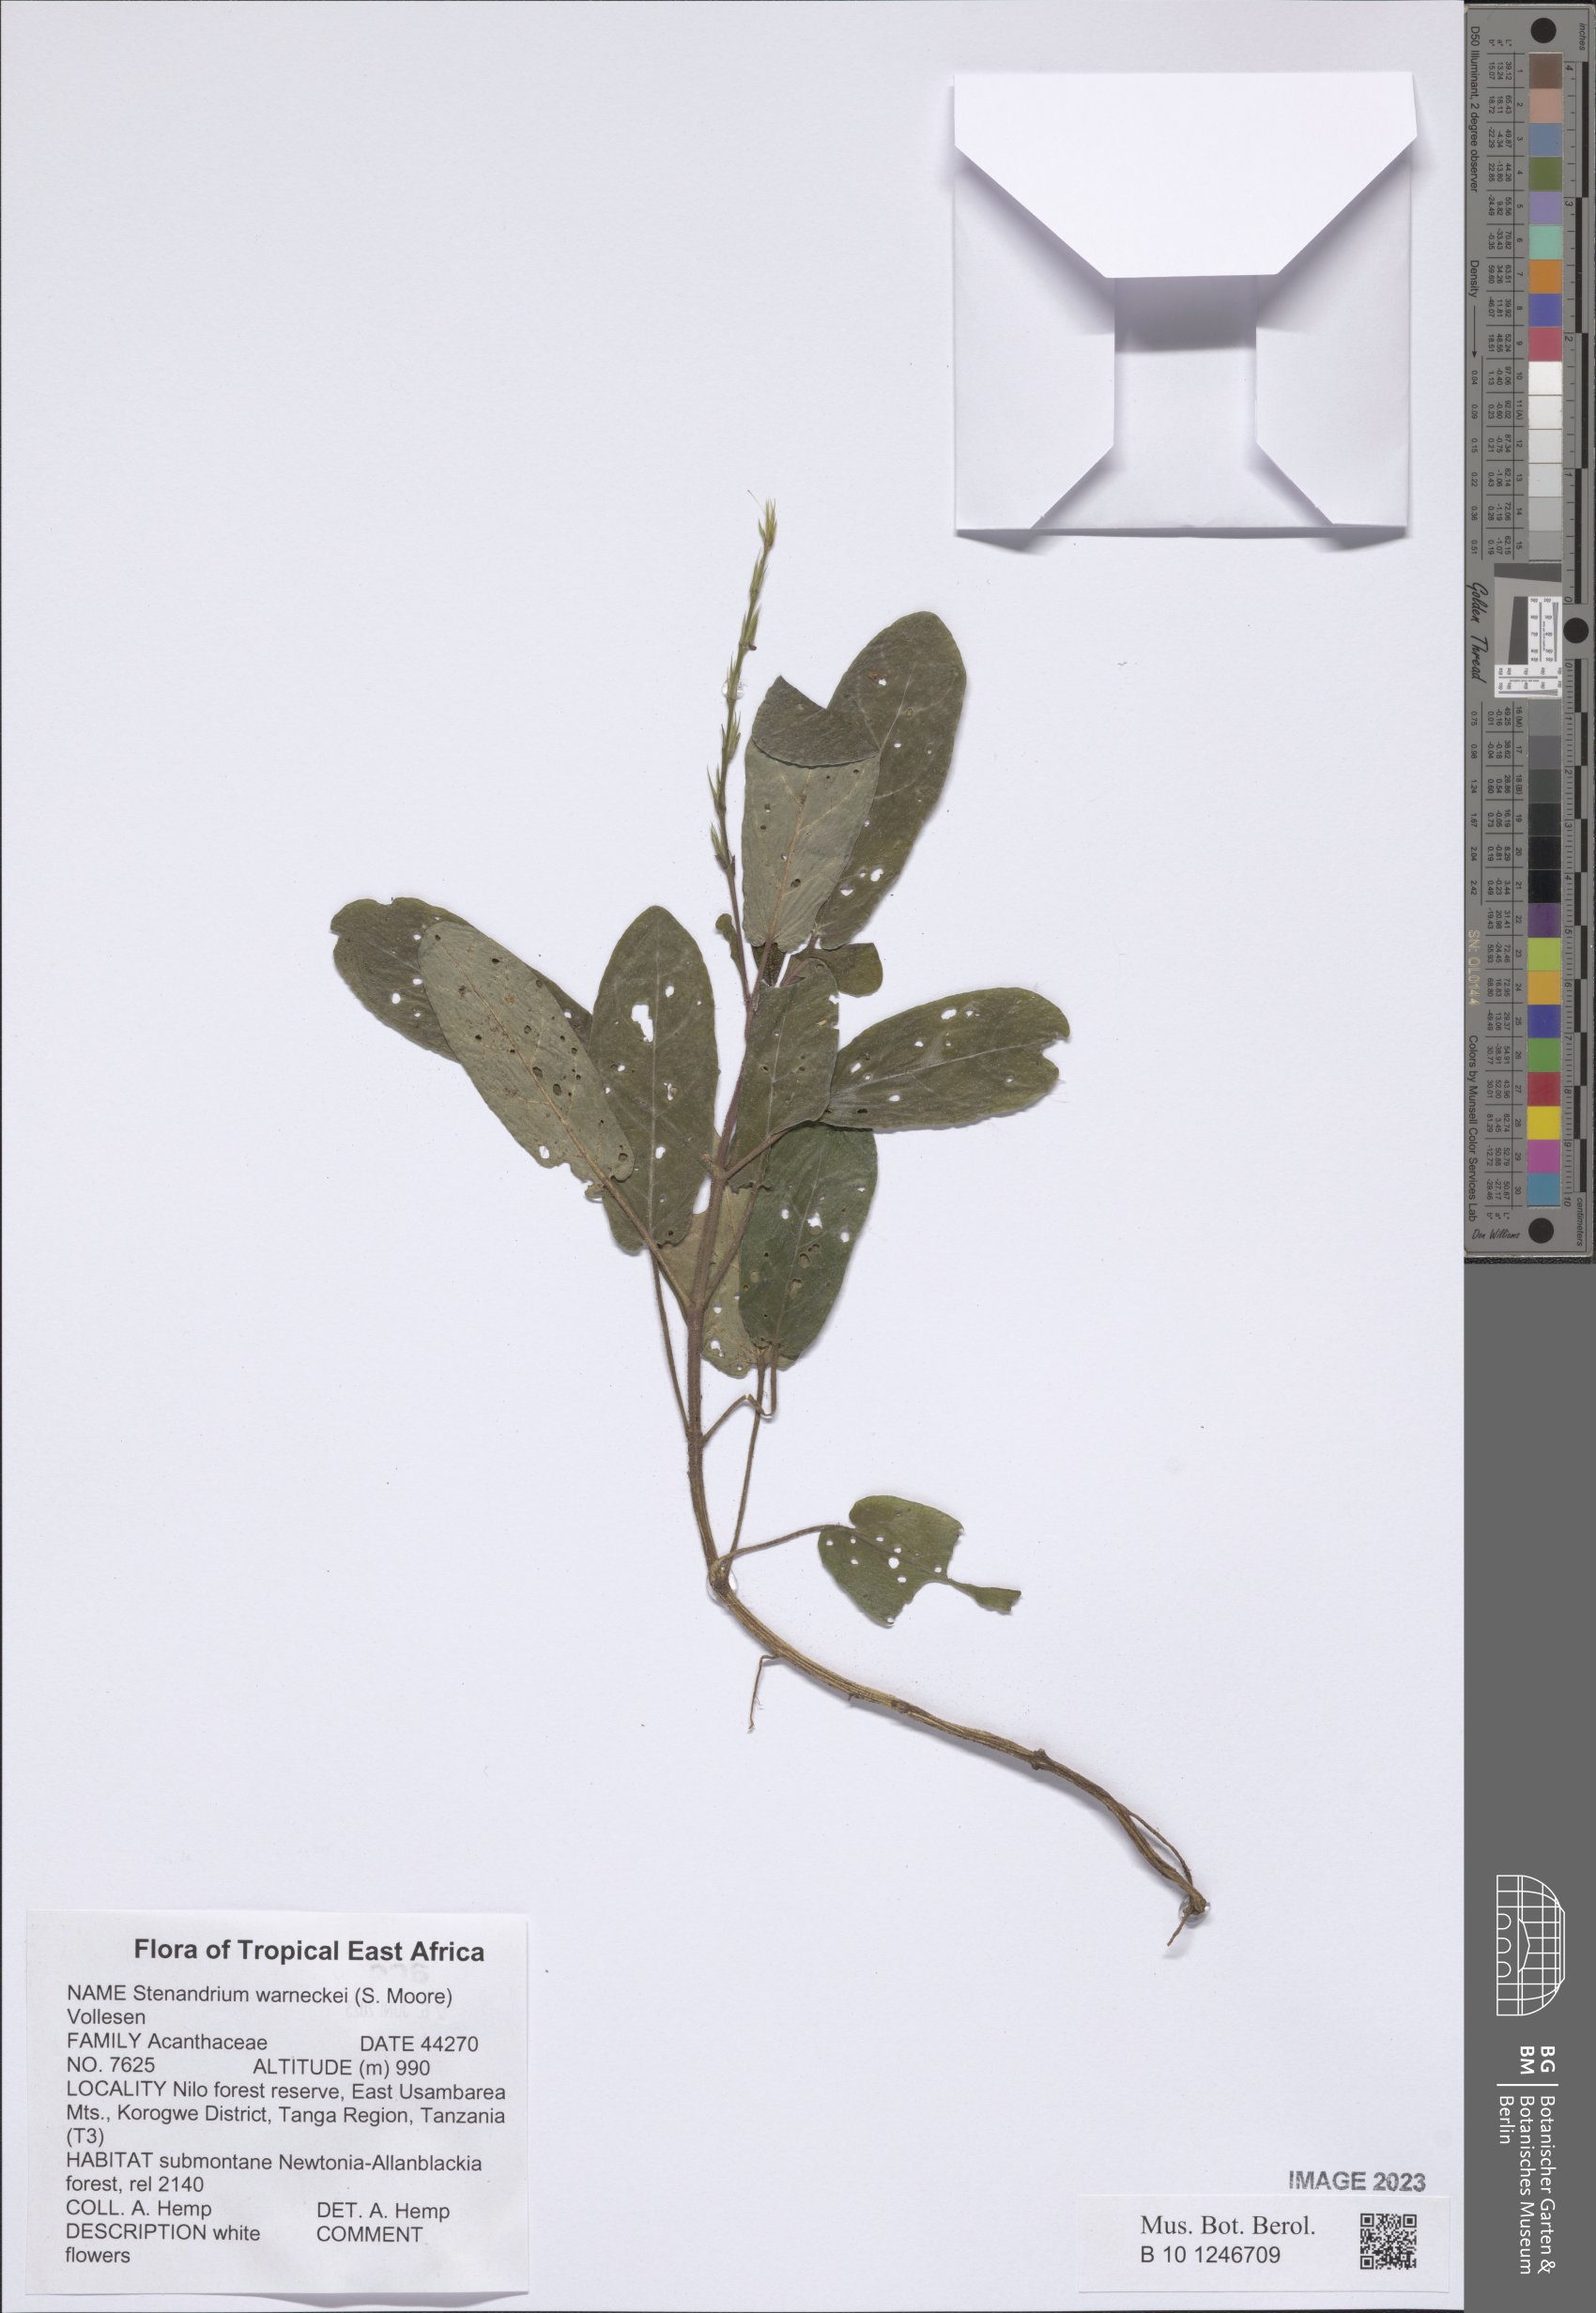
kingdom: Plantae
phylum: Tracheophyta
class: Magnoliopsida
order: Lamiales
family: Acanthaceae
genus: Stenandriopsis
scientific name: Stenandriopsis warneckei
